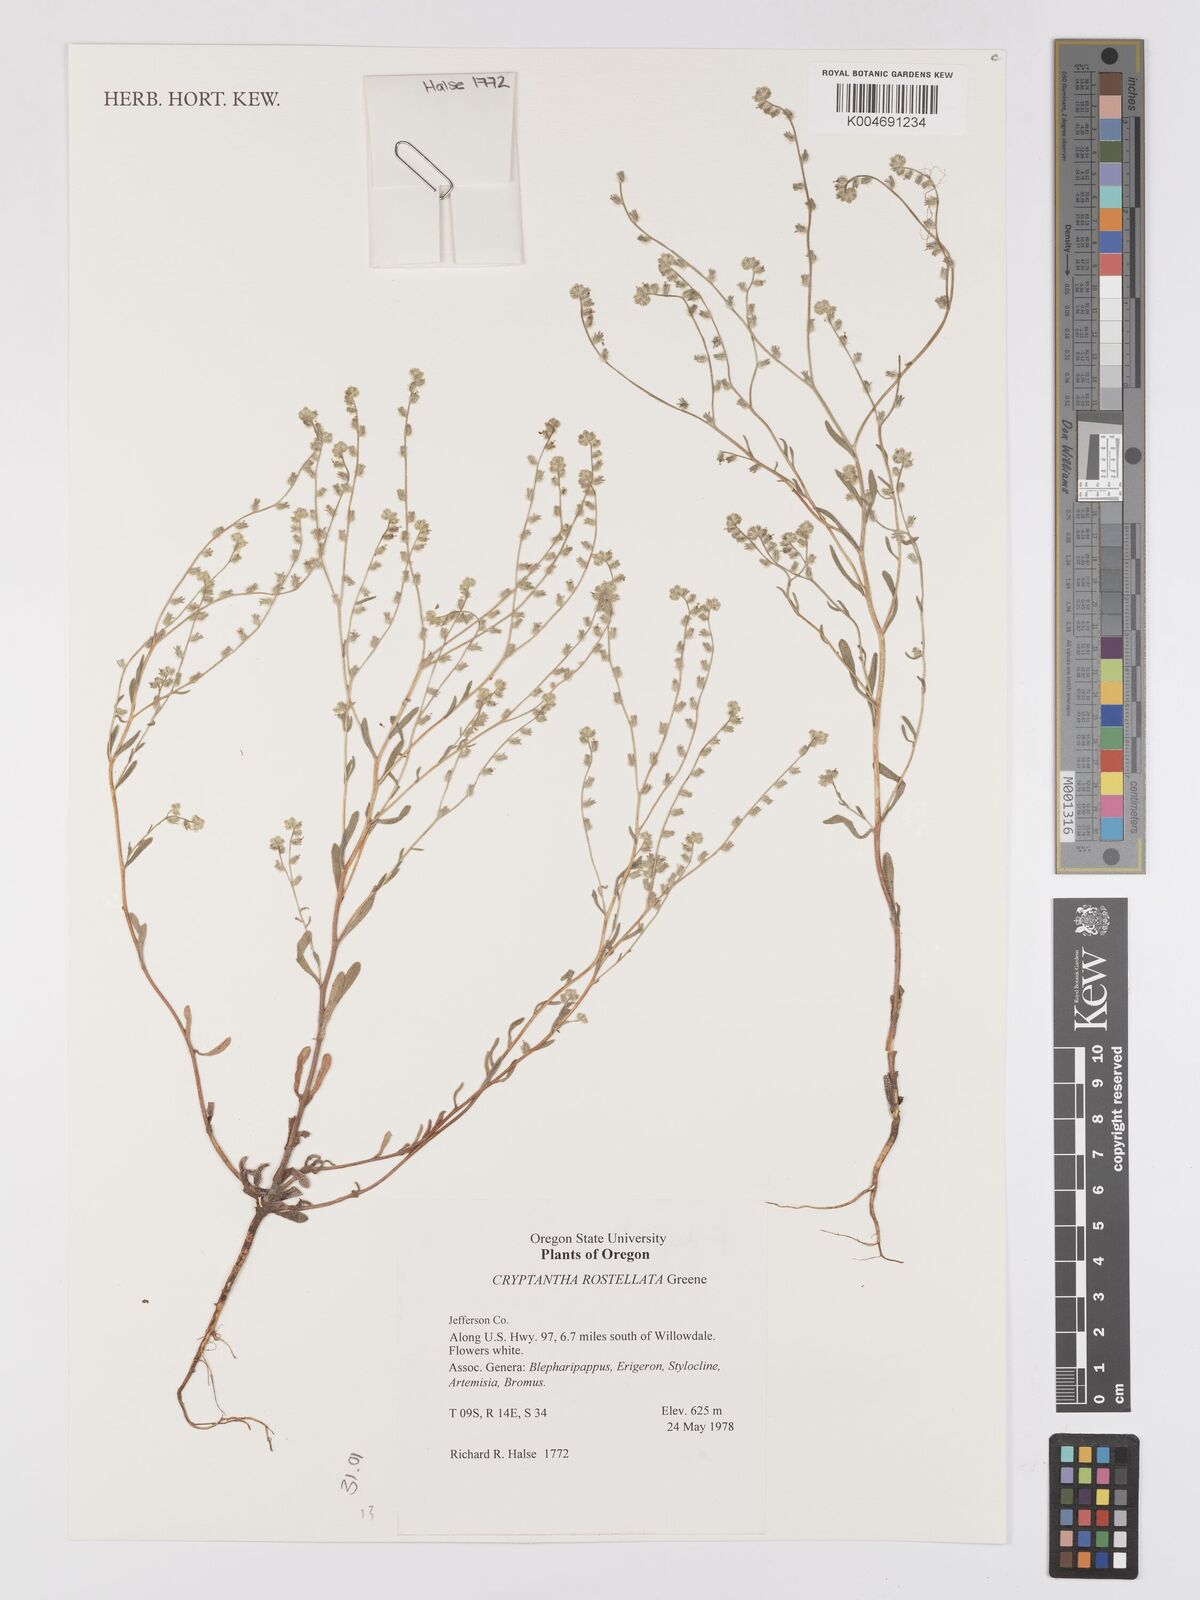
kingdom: Plantae
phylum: Tracheophyta
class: Magnoliopsida
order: Boraginales
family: Boraginaceae
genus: Cryptantha
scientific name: Cryptantha rostellata
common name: Beaked cryptantha
